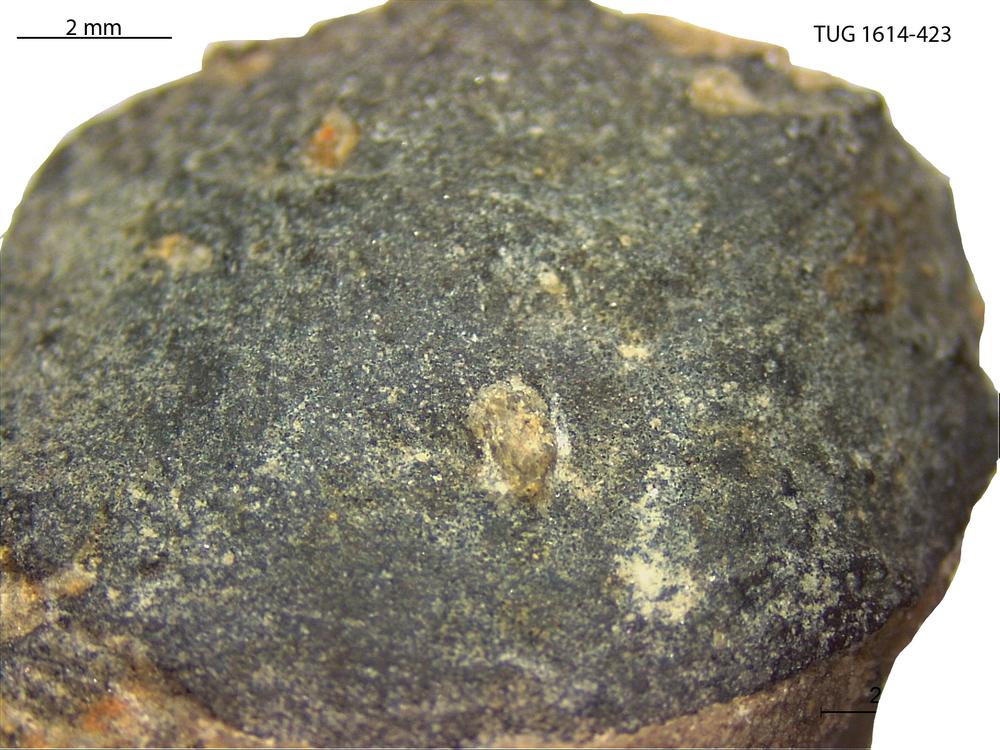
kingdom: Animalia
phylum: Mollusca
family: Scenellidae
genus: Scenella
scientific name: Scenella
